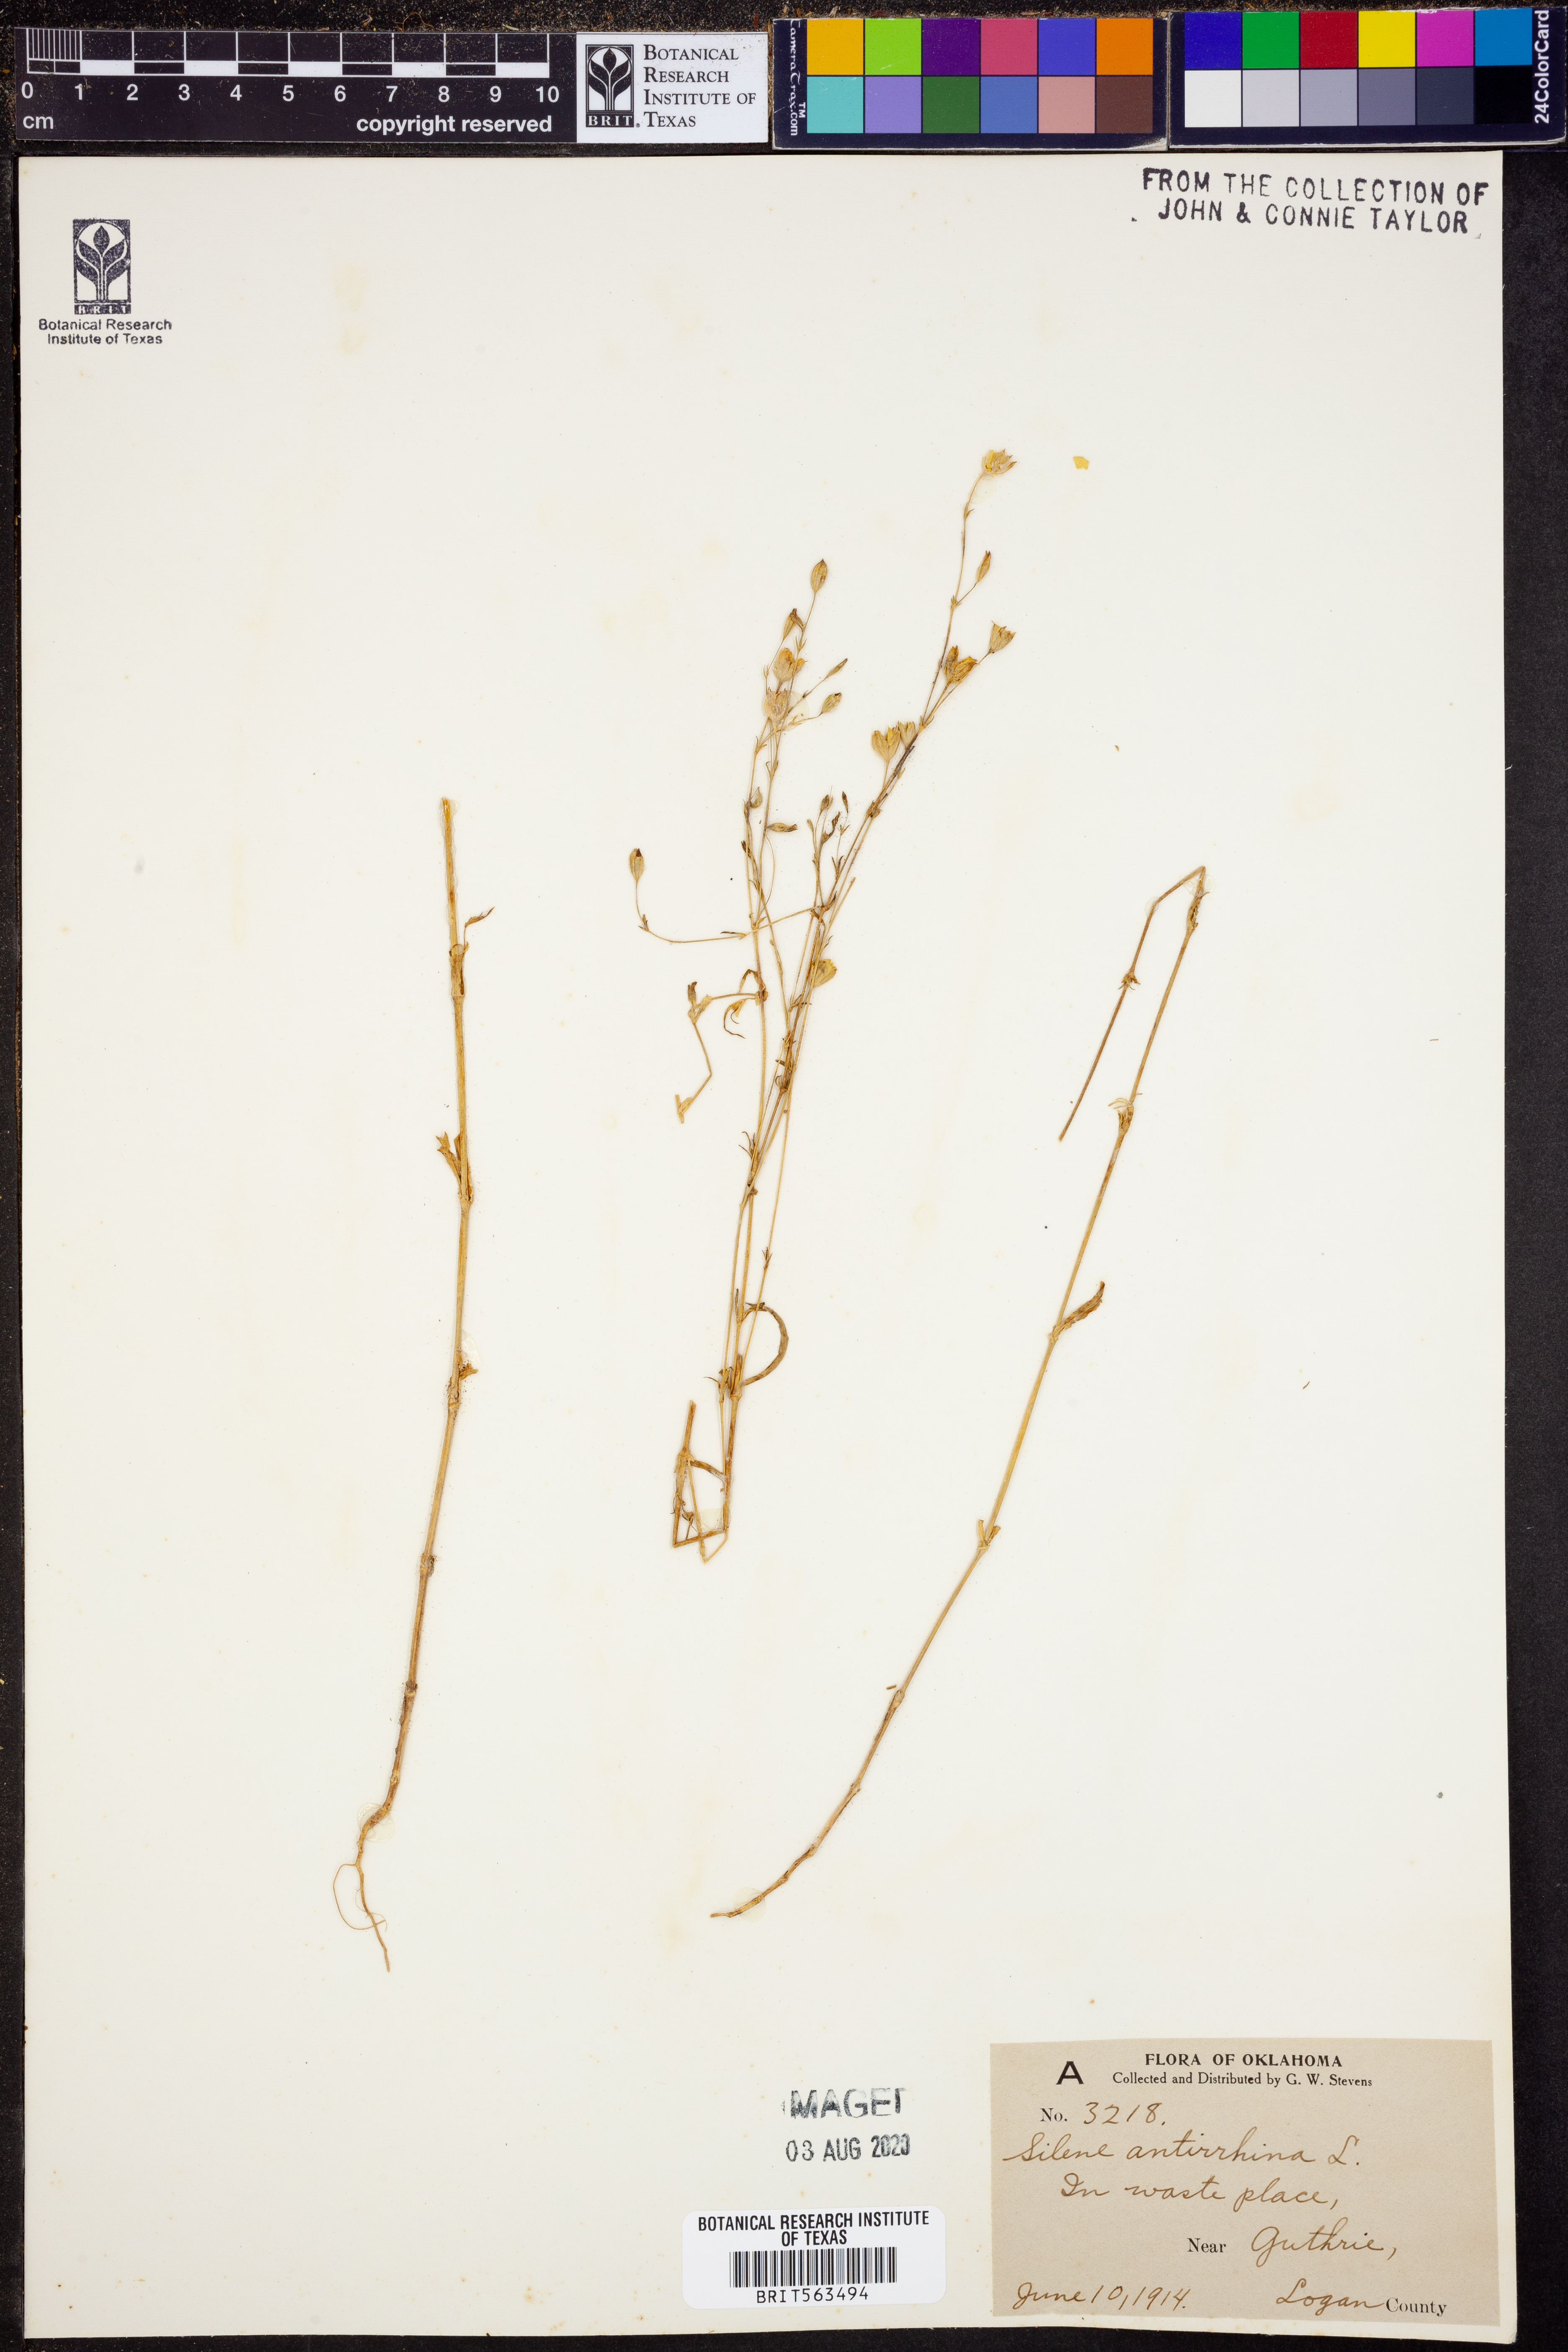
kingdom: Plantae
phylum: Tracheophyta
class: Magnoliopsida
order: Caryophyllales
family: Caryophyllaceae
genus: Silene
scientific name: Silene antirrhina
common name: Sleepy catchfly
